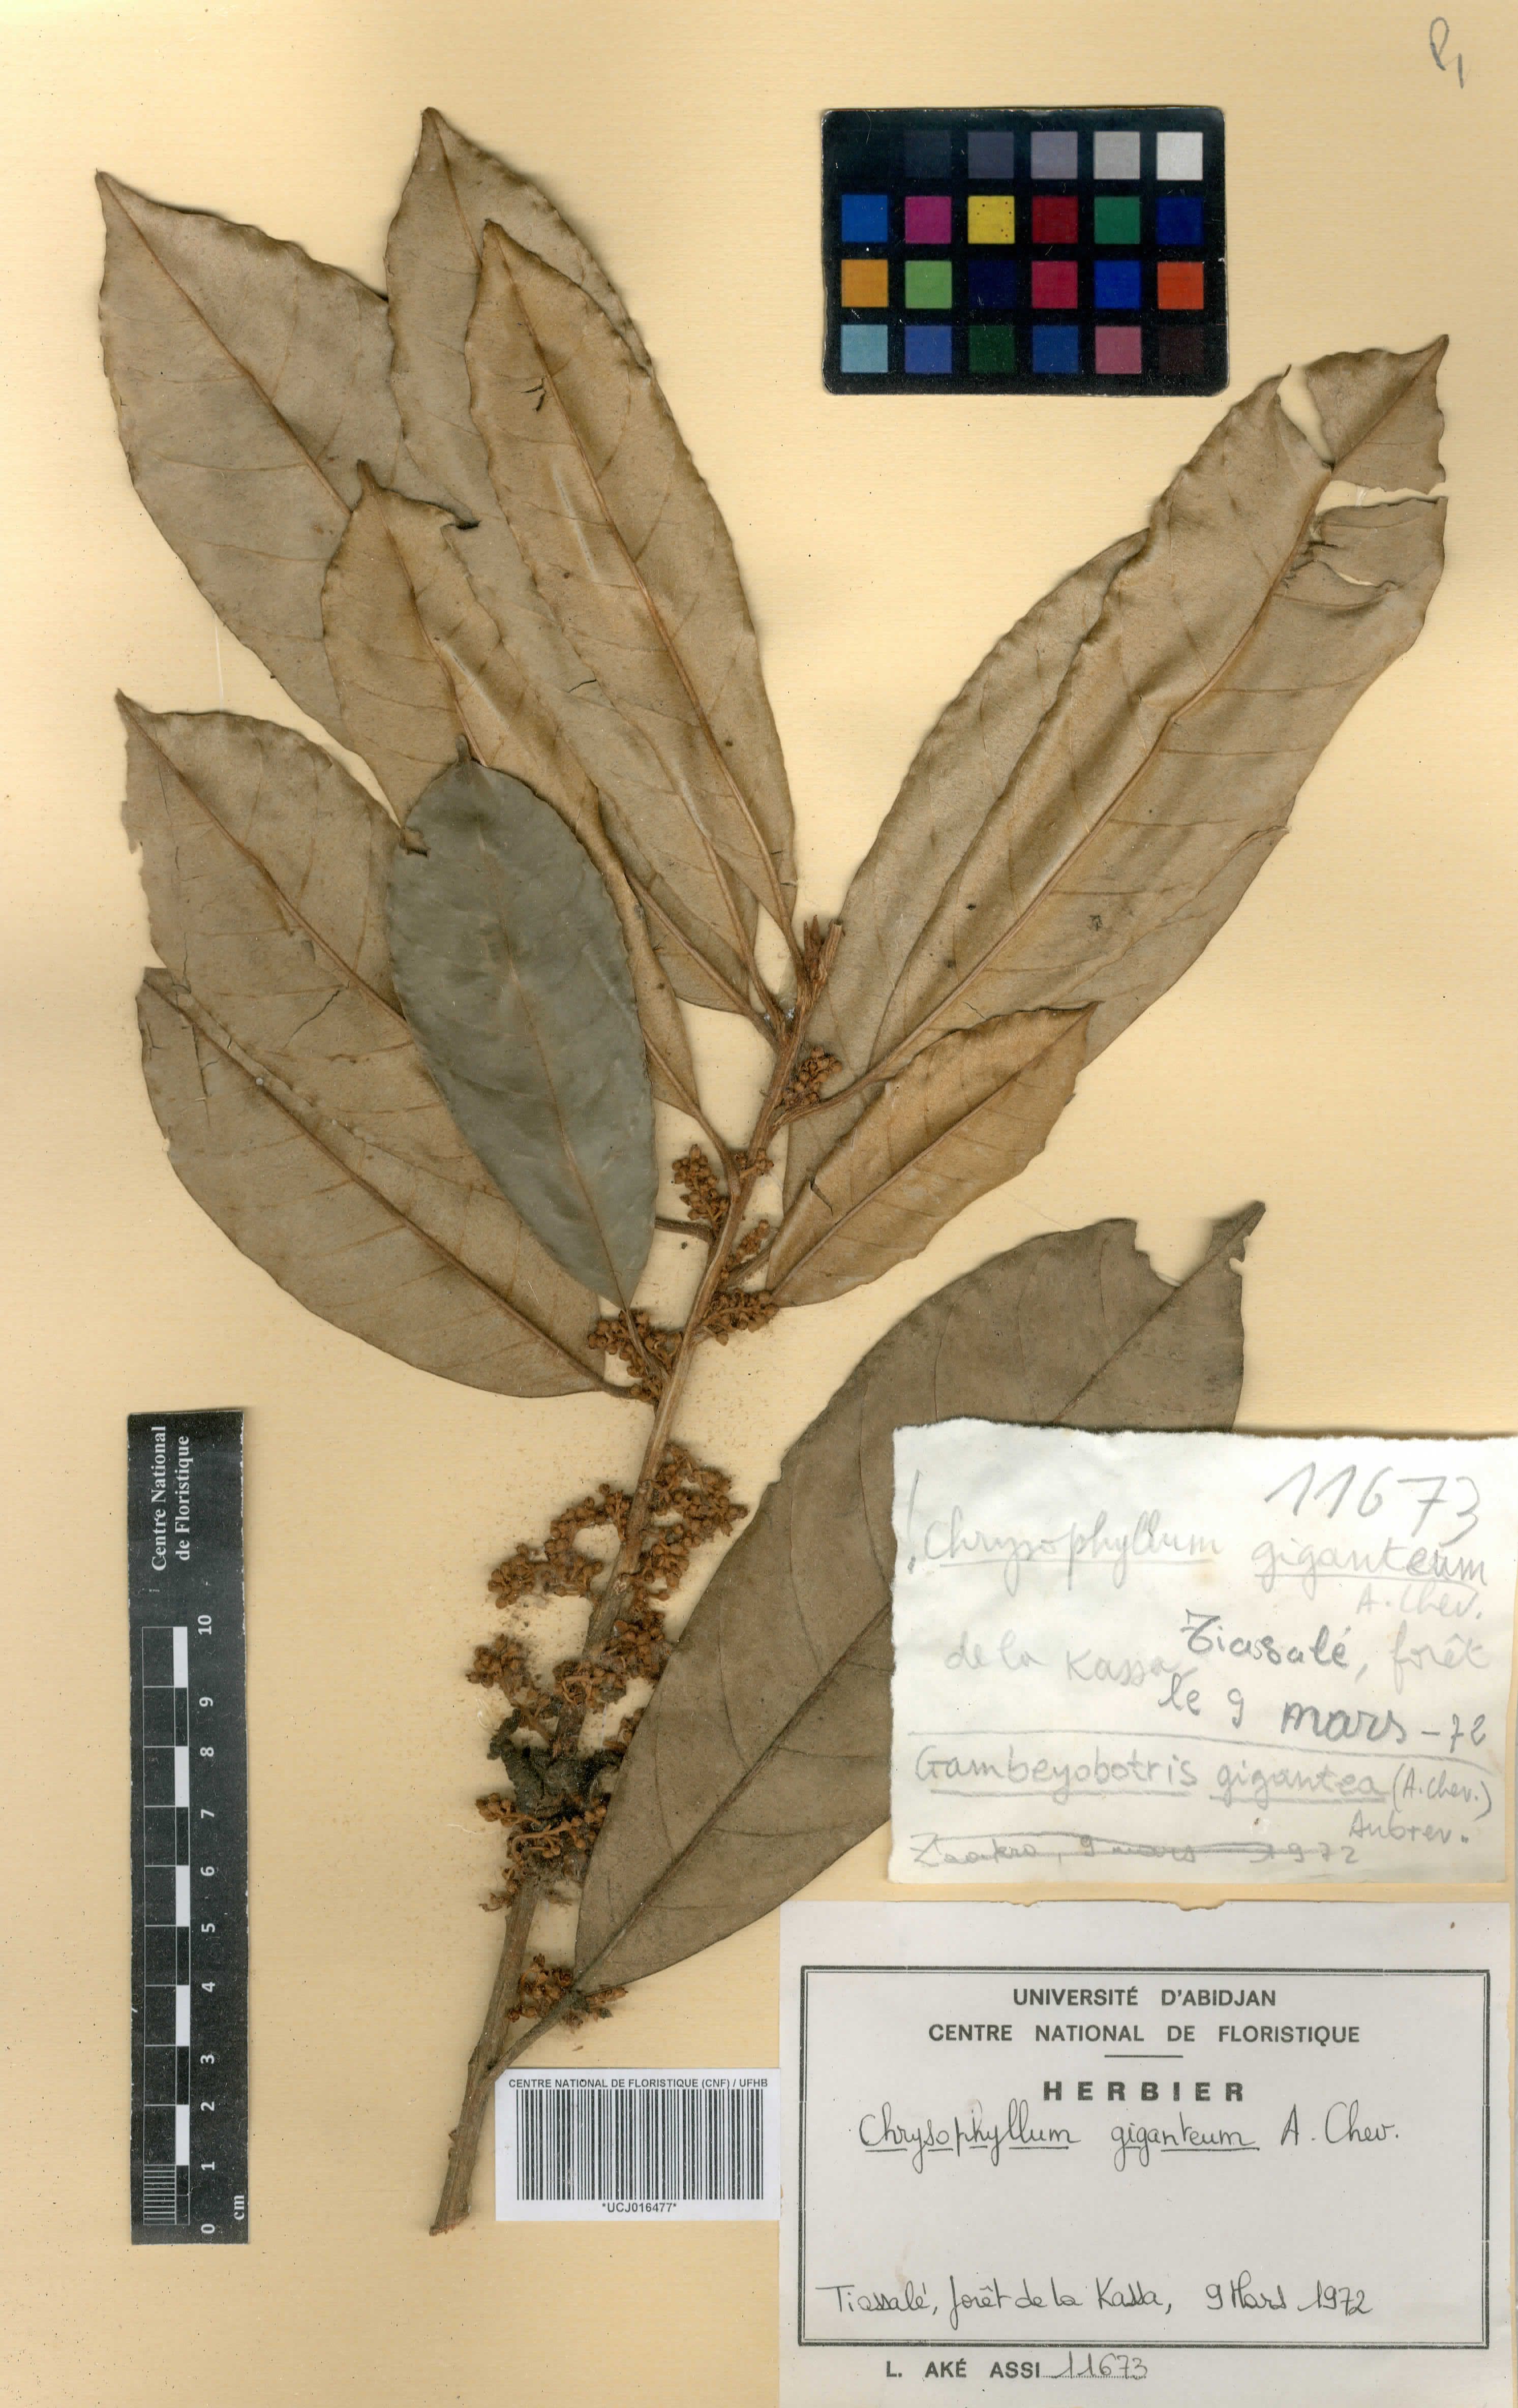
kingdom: Plantae
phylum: Tracheophyta
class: Magnoliopsida
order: Ericales
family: Sapotaceae
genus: Gambeya
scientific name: Gambeya gigantea
